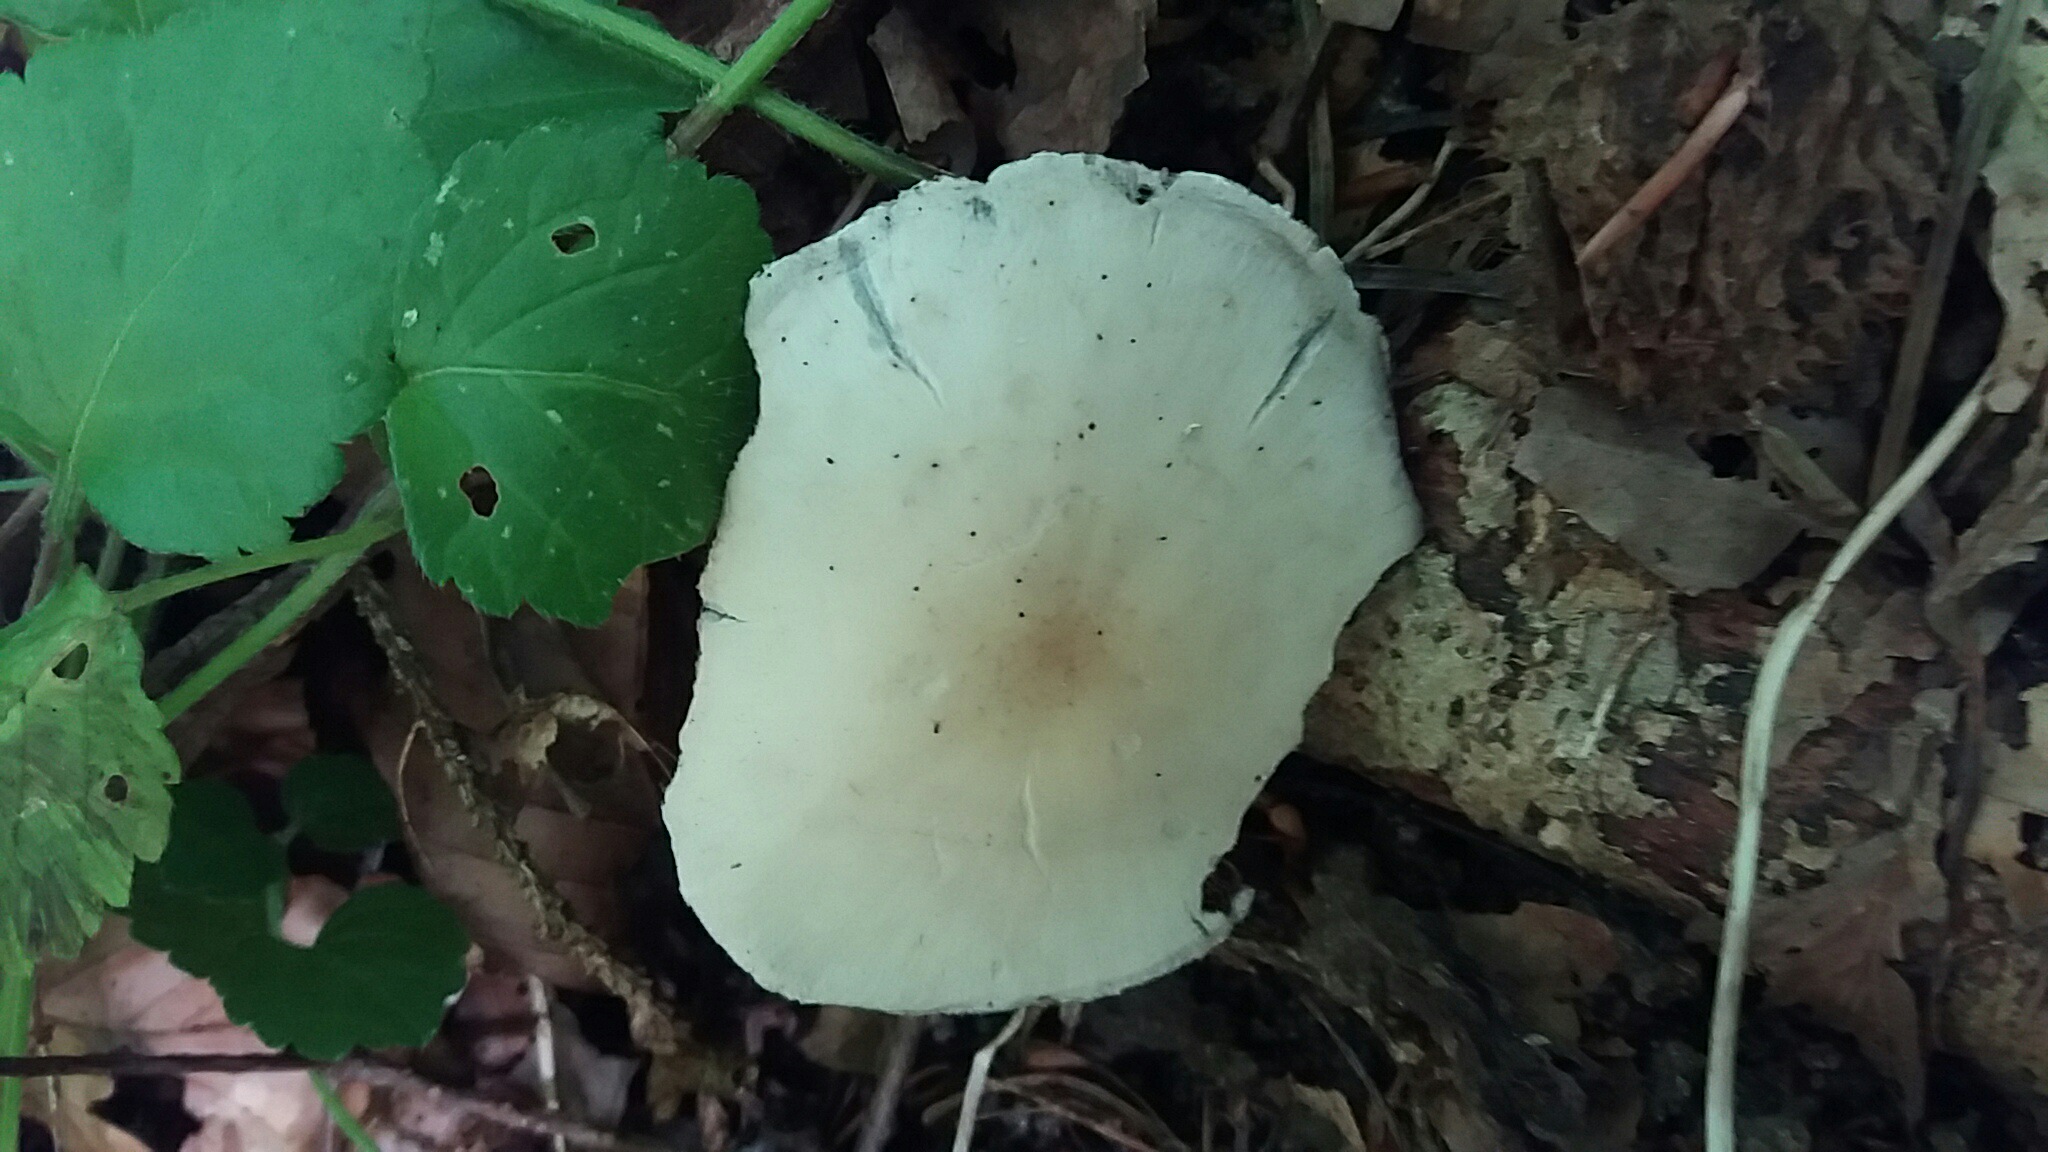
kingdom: Fungi
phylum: Basidiomycota
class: Agaricomycetes
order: Agaricales
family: Psathyrellaceae
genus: Candolleomyces
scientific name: Candolleomyces candolleanus
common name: Candolles mørkhat
